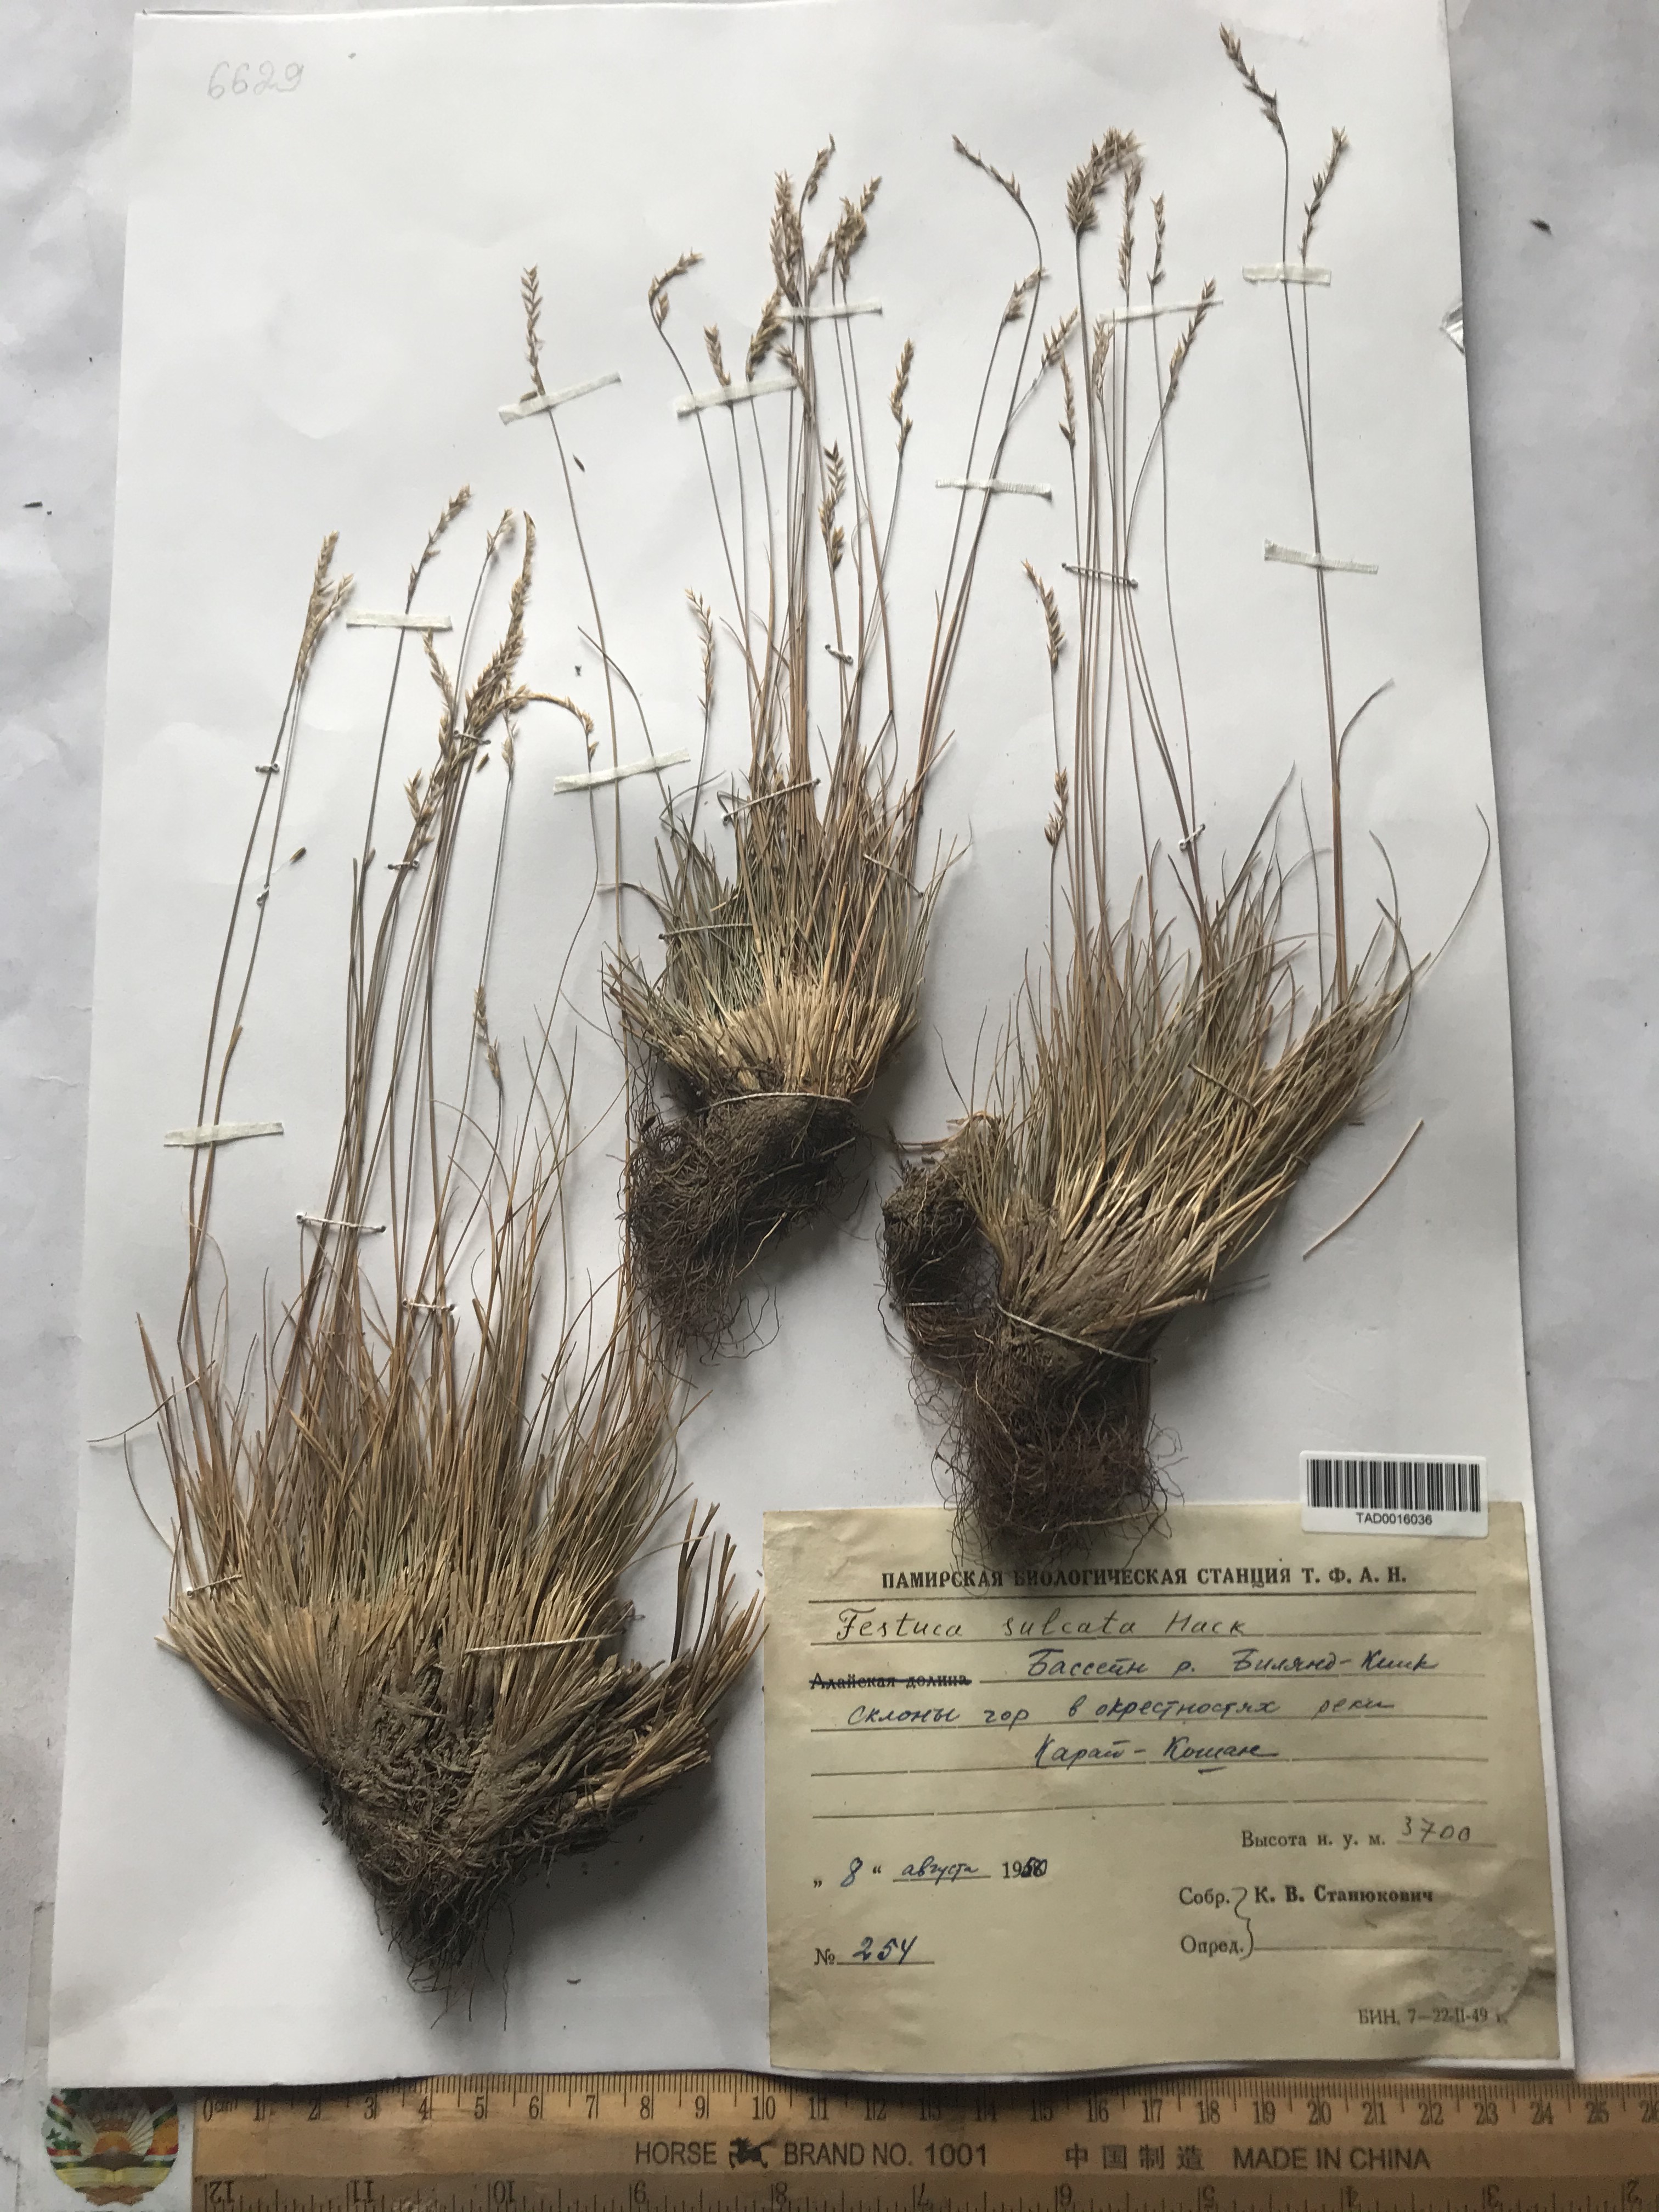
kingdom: Plantae
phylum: Tracheophyta
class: Liliopsida
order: Poales
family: Poaceae
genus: Festuca
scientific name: Festuca sulcata
